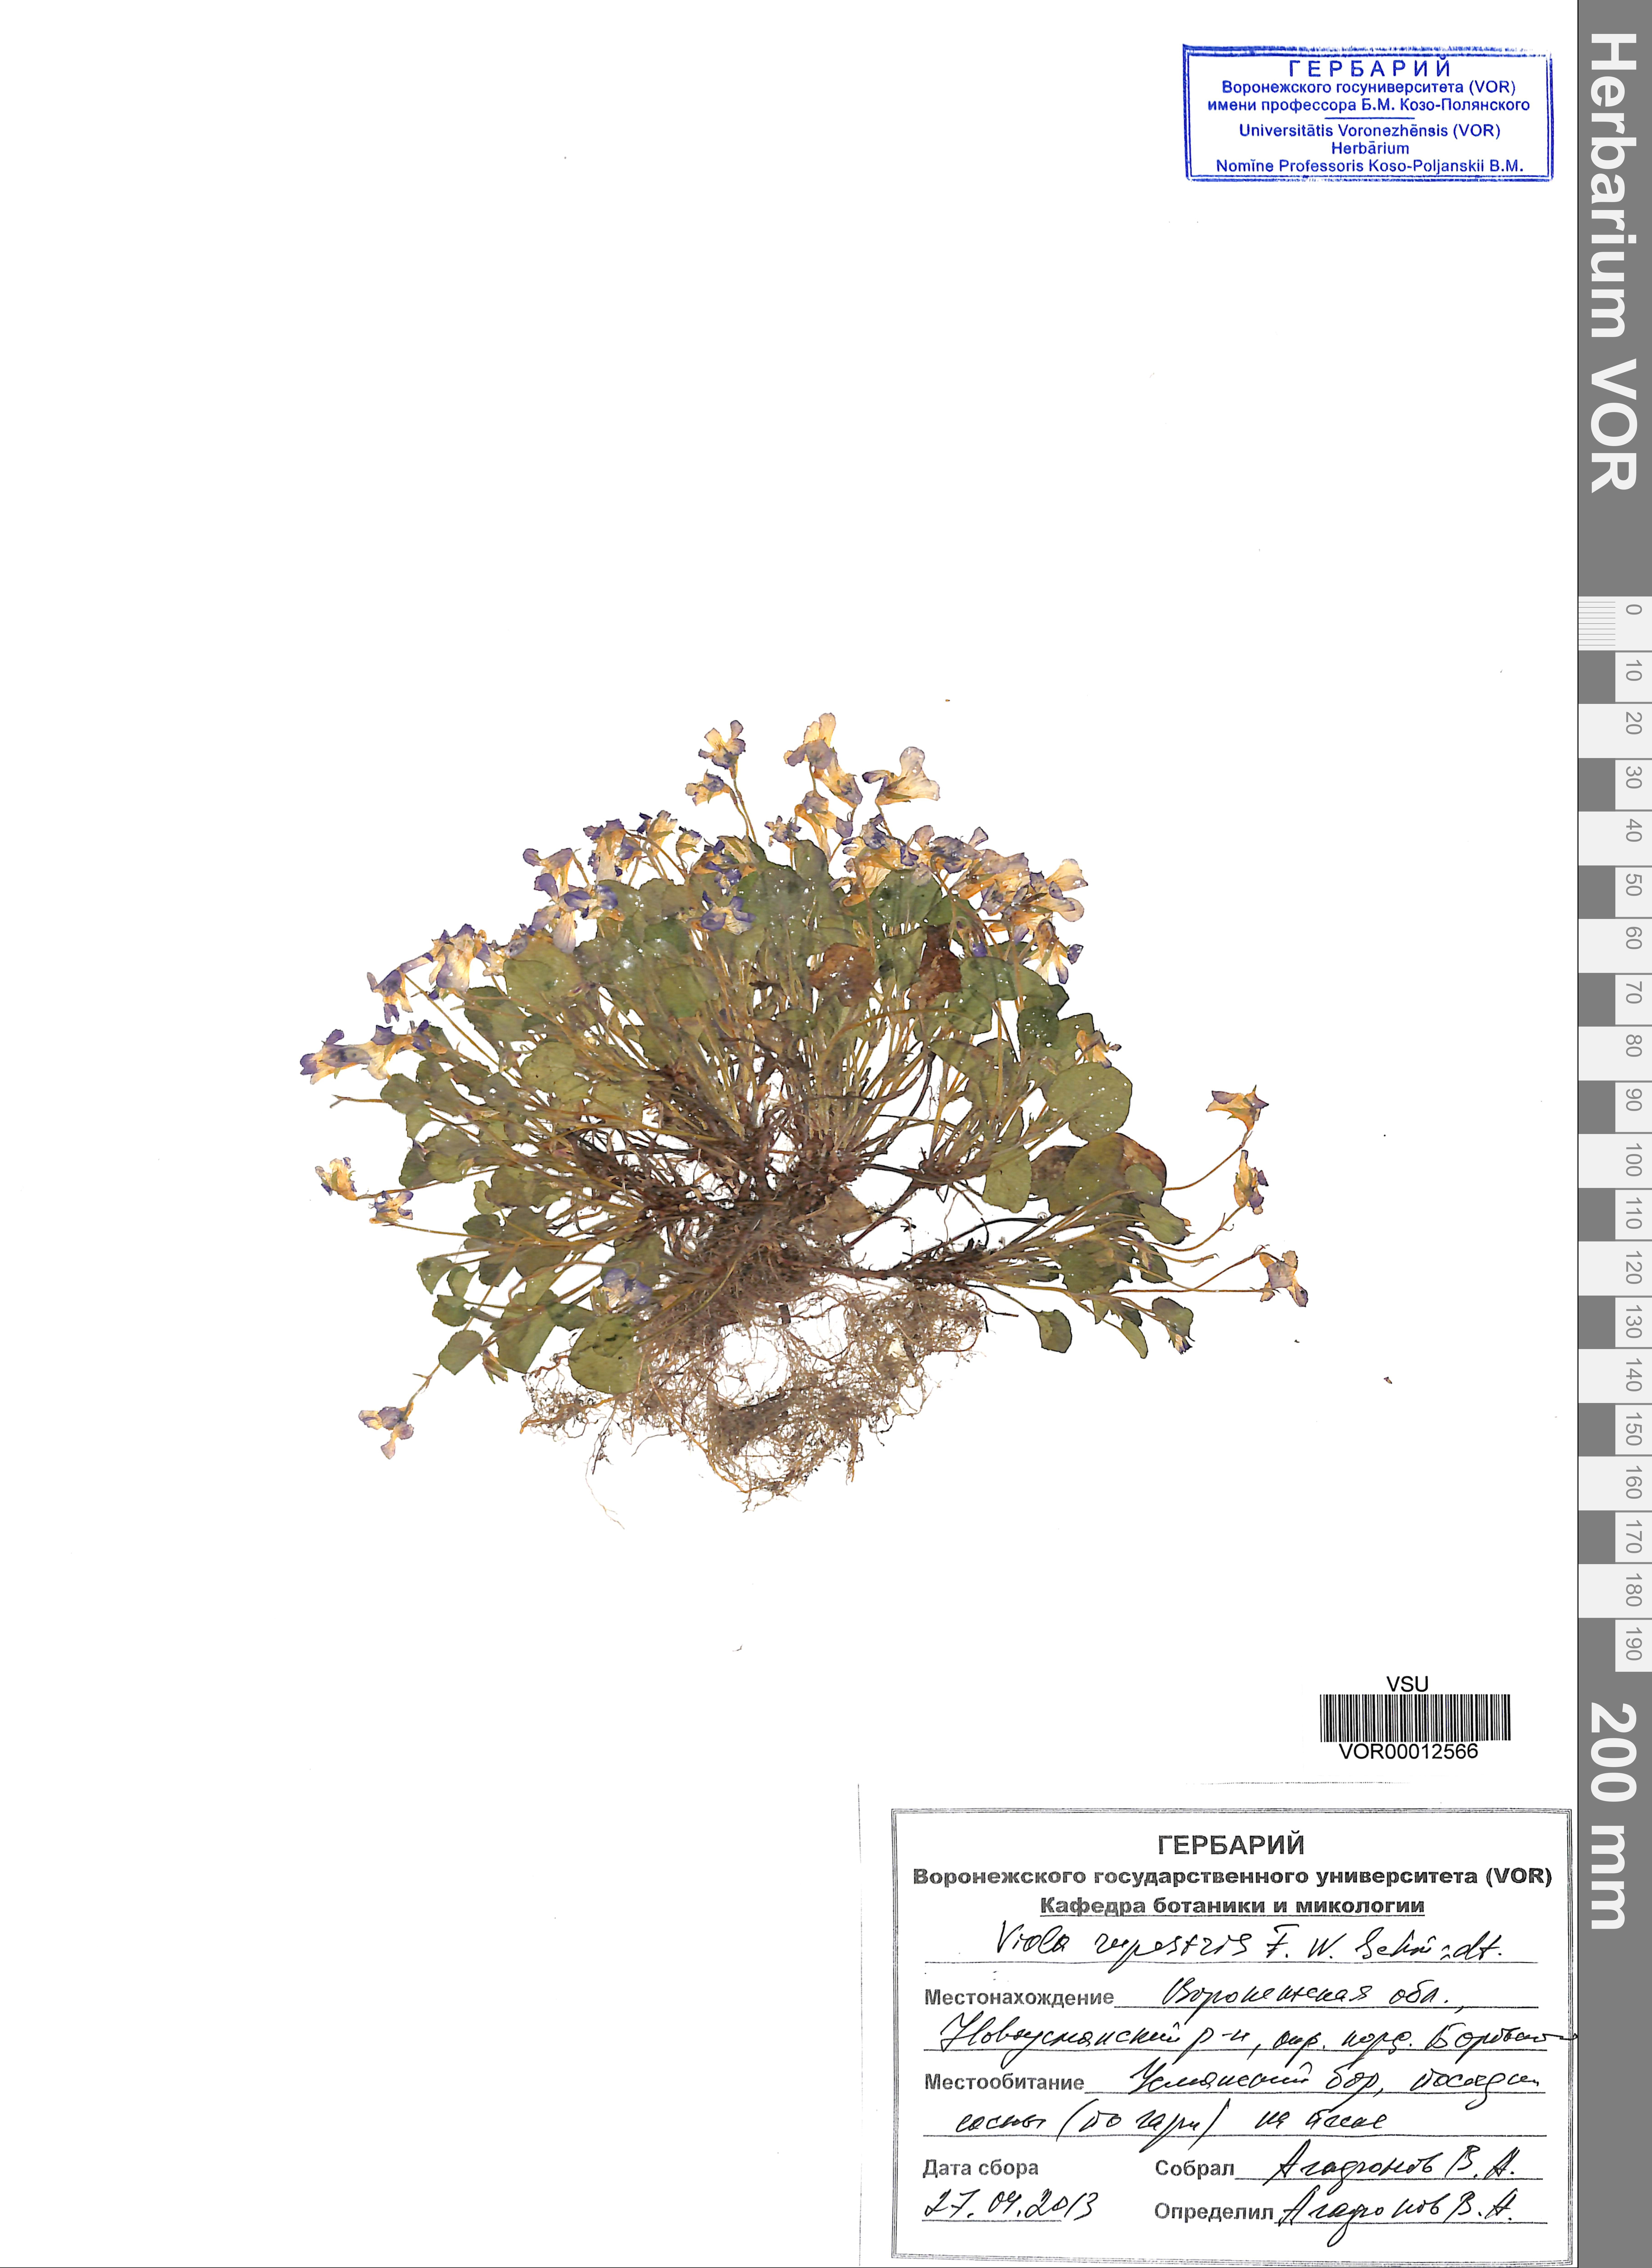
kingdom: Plantae
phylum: Tracheophyta
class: Magnoliopsida
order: Malpighiales
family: Violaceae
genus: Viola
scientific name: Viola rupestris
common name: Teesdale violet
